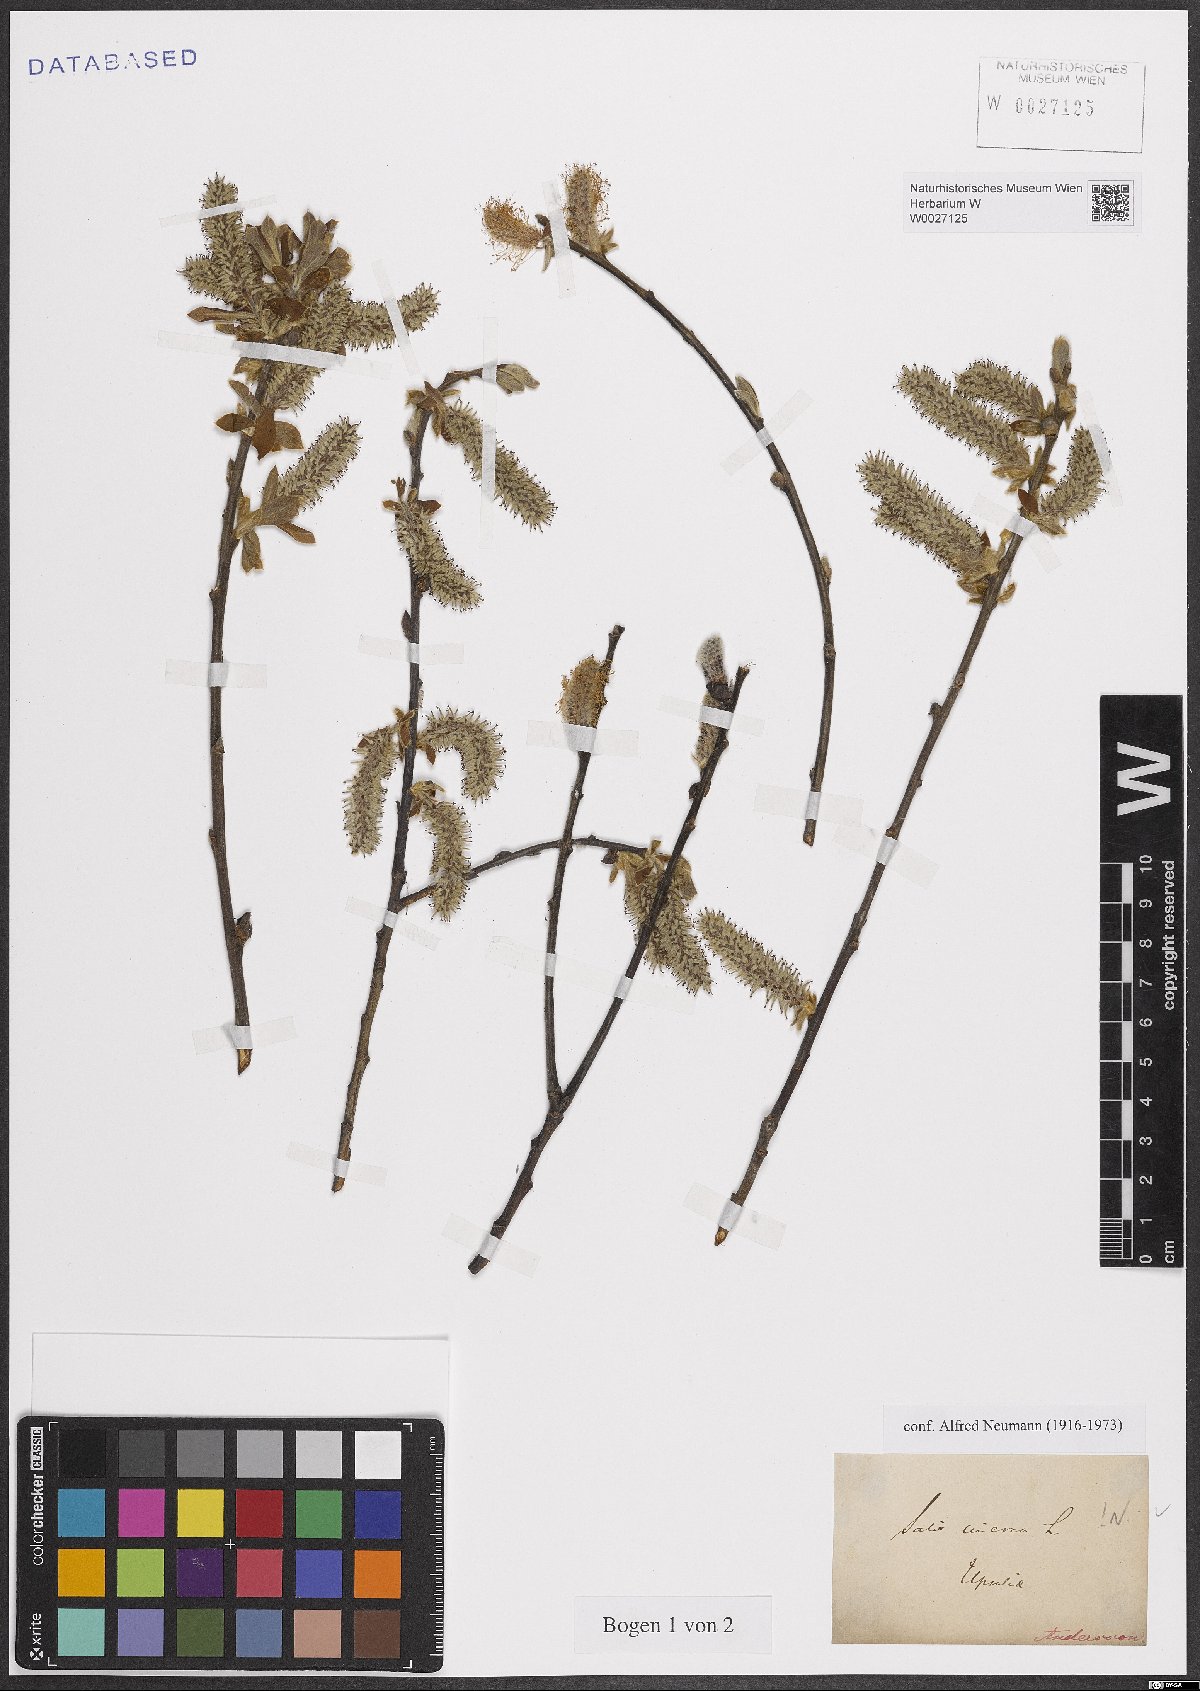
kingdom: Plantae
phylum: Tracheophyta
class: Magnoliopsida
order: Malpighiales
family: Salicaceae
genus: Salix
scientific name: Salix cinerea
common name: Common sallow
